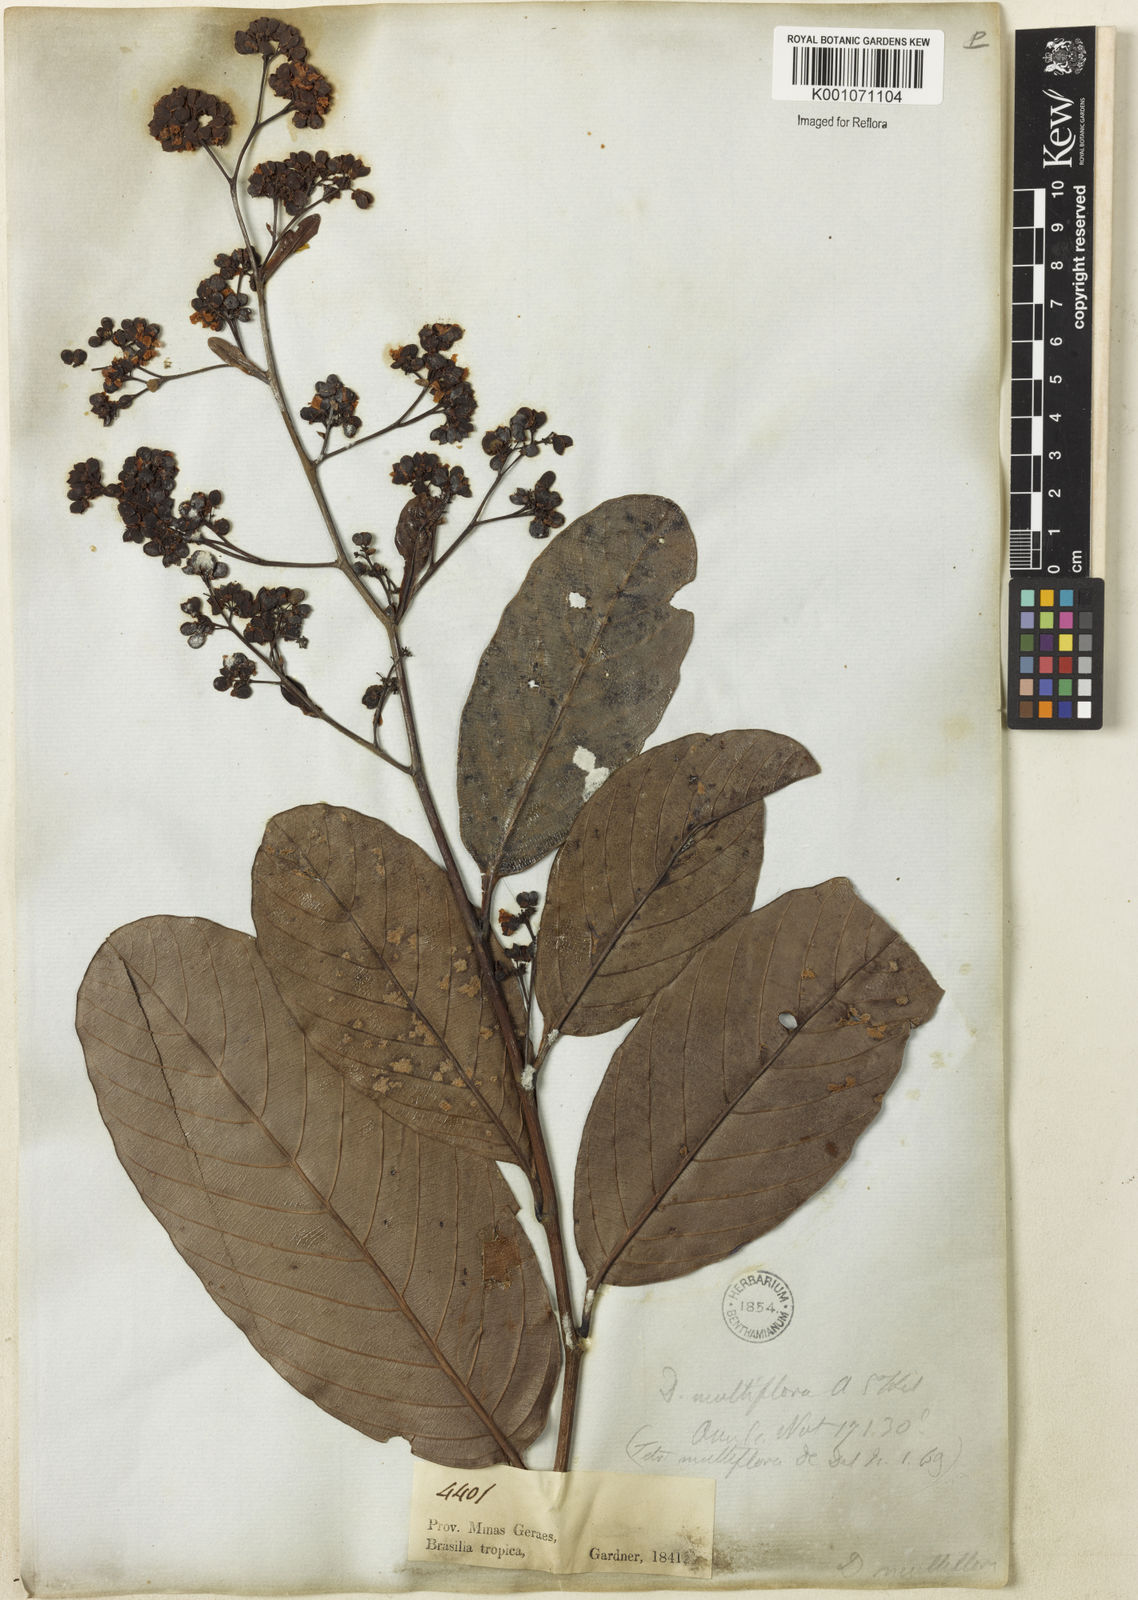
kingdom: Plantae
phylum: Tracheophyta
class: Magnoliopsida
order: Dilleniales
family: Dilleniaceae
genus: Davilla
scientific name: Davilla nitida
